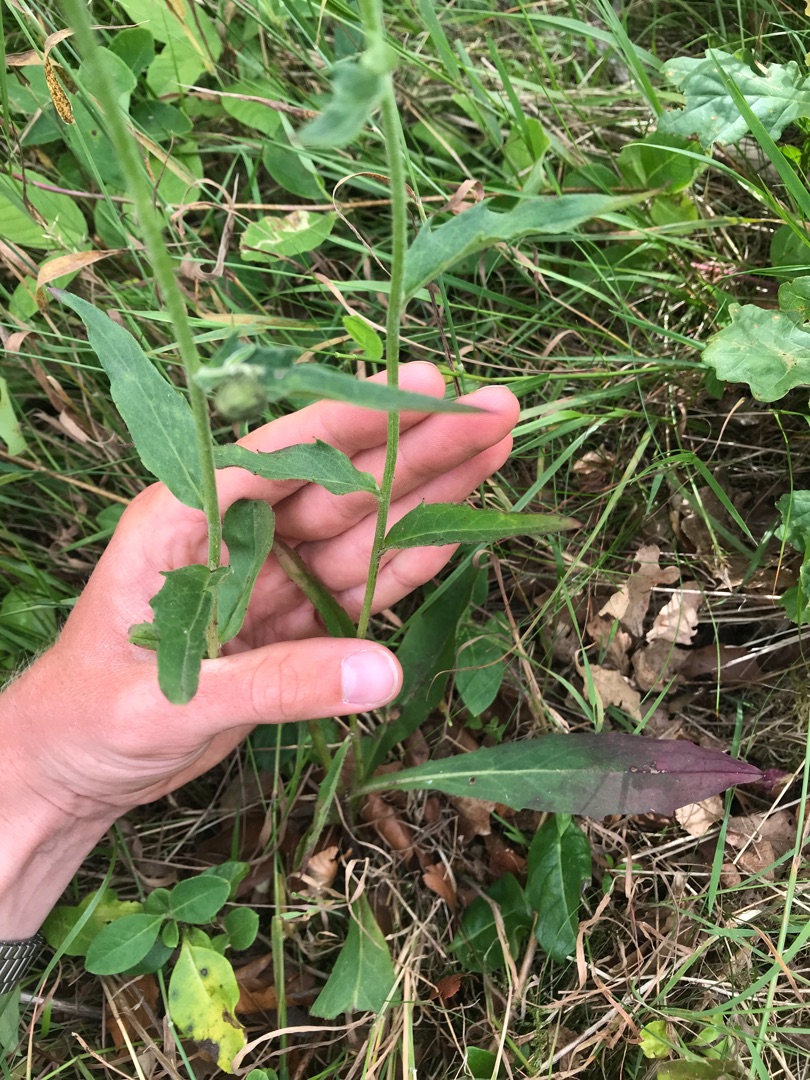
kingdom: Plantae
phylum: Tracheophyta
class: Magnoliopsida
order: Asterales
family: Asteraceae
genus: Hieracium
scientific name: Hieracium
